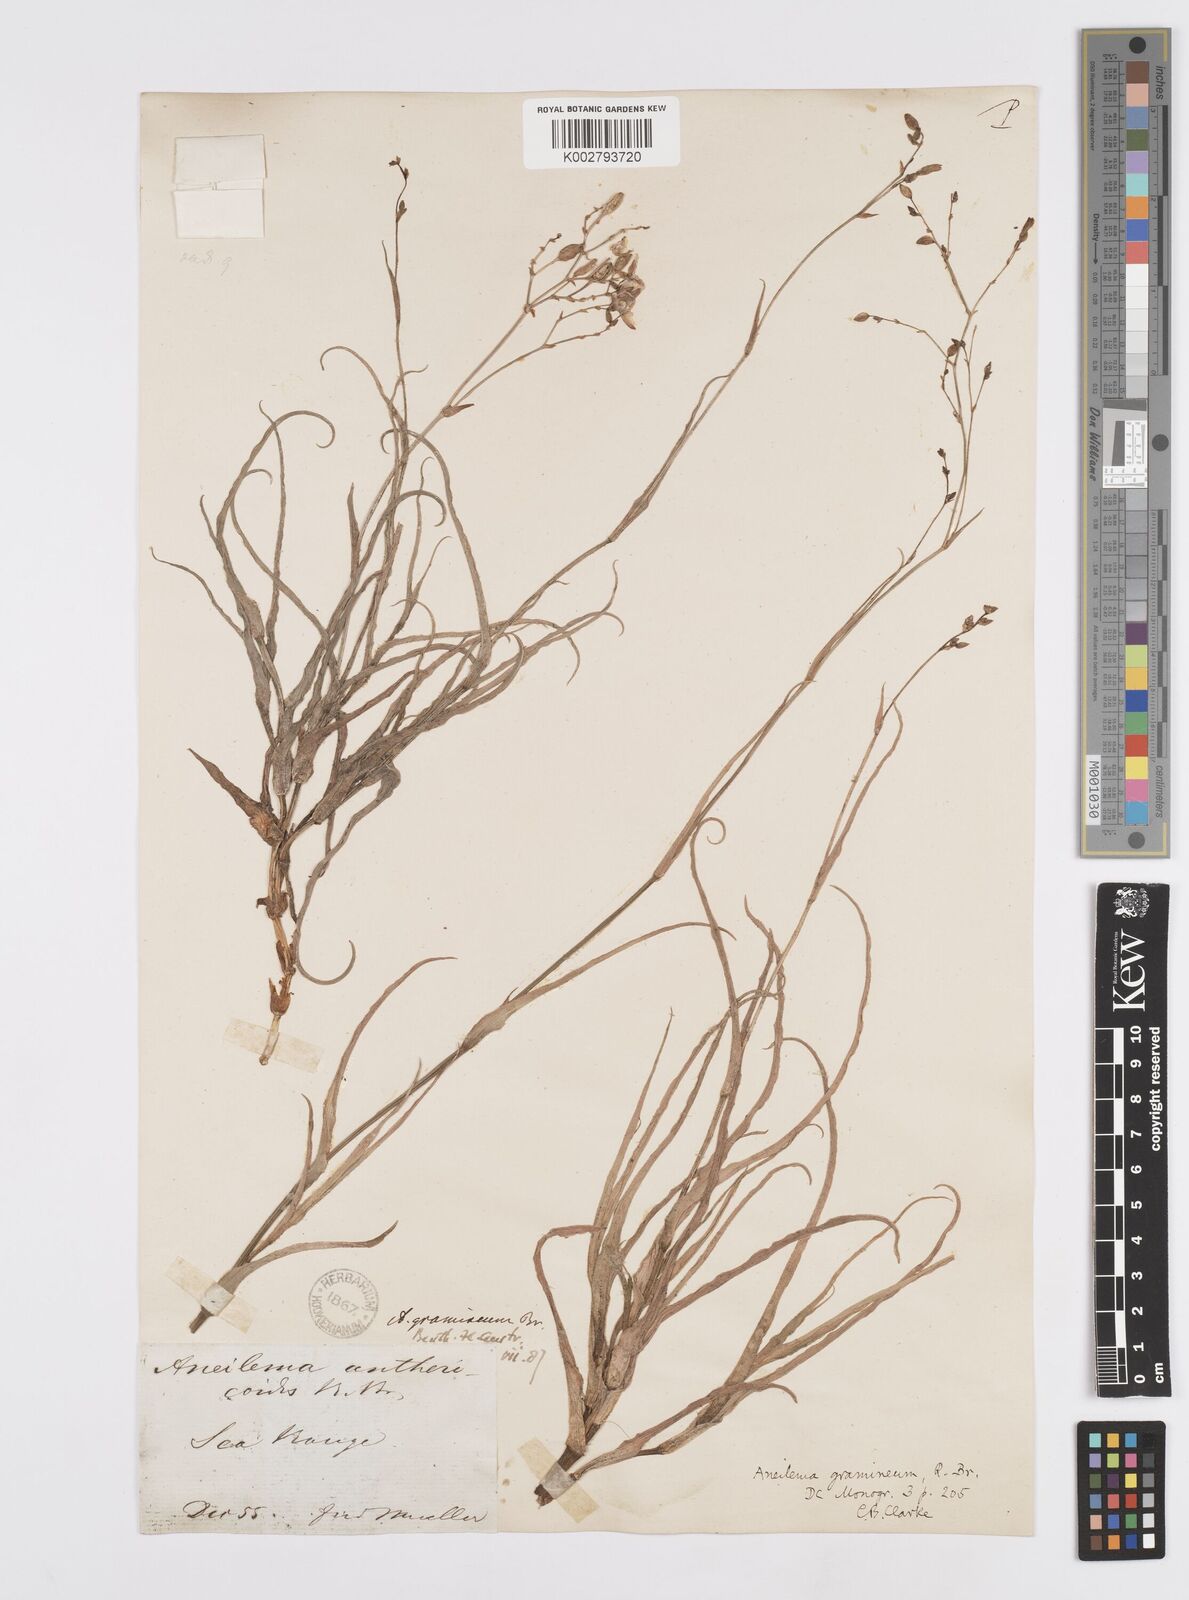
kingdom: Plantae
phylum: Tracheophyta
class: Liliopsida
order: Commelinales
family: Commelinaceae
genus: Murdannia
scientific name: Murdannia graminea
